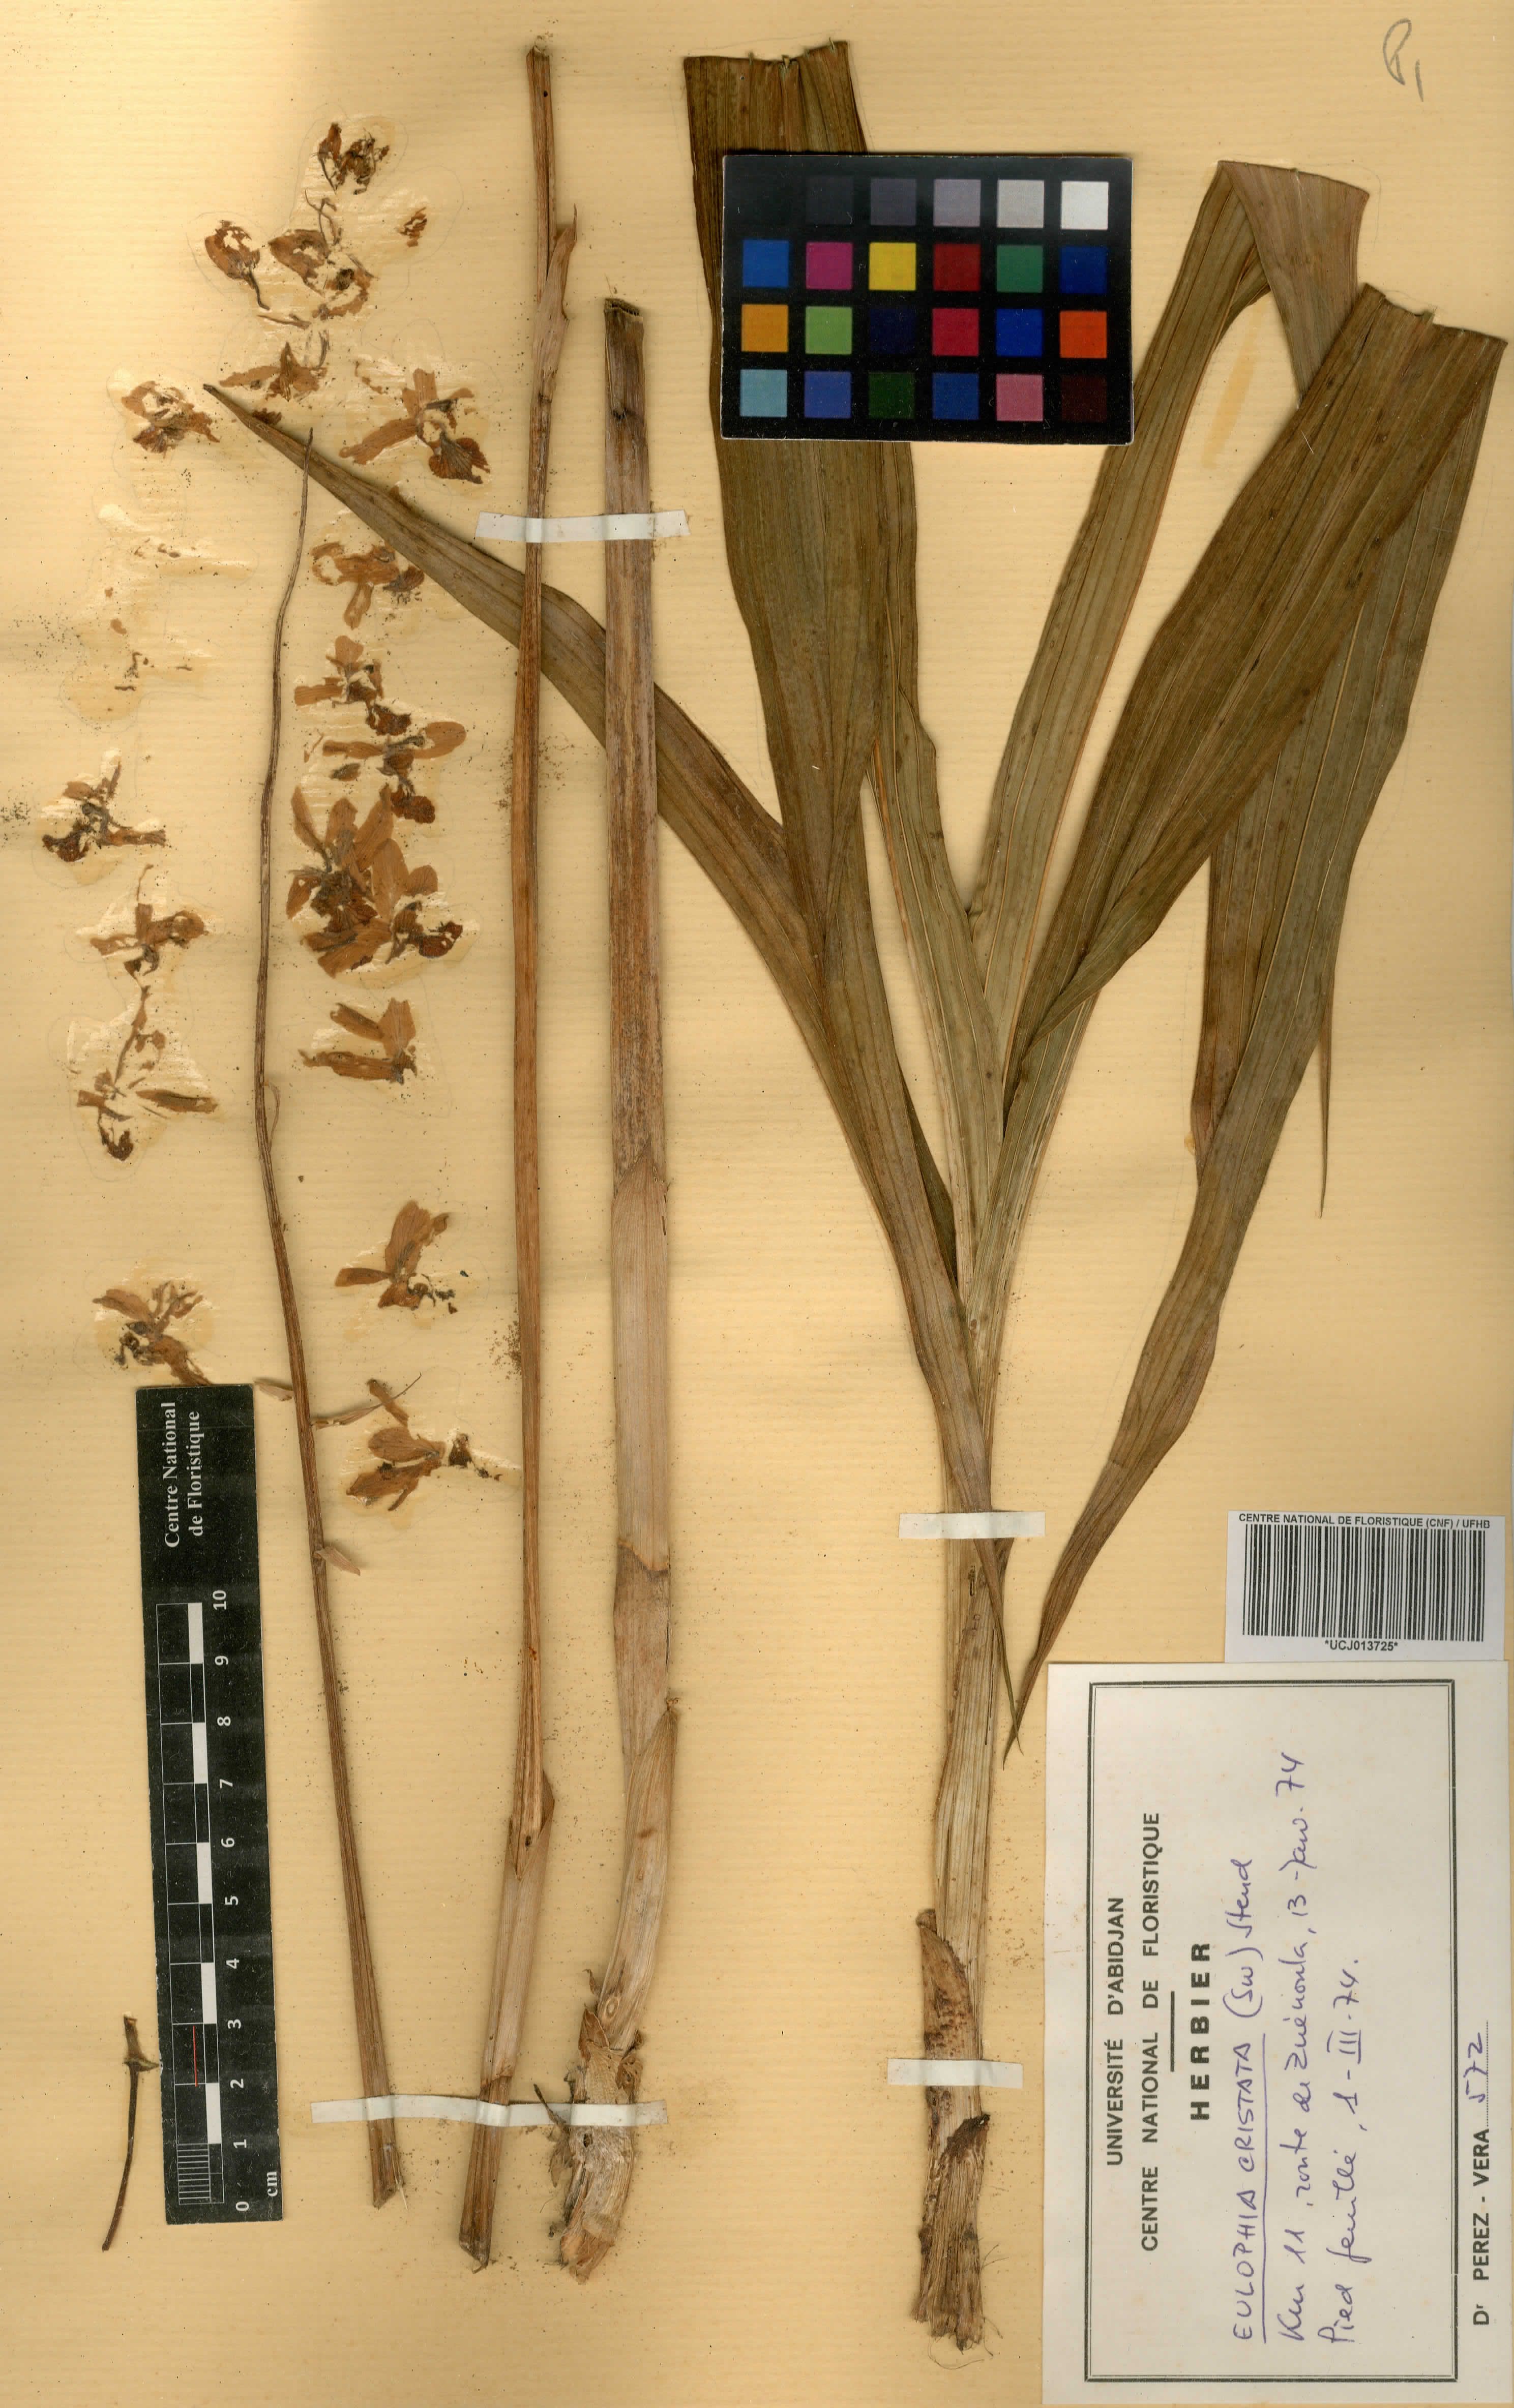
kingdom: Plantae
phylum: Tracheophyta
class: Liliopsida
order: Asparagales
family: Orchidaceae
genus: Eulophia
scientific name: Eulophia cristata
